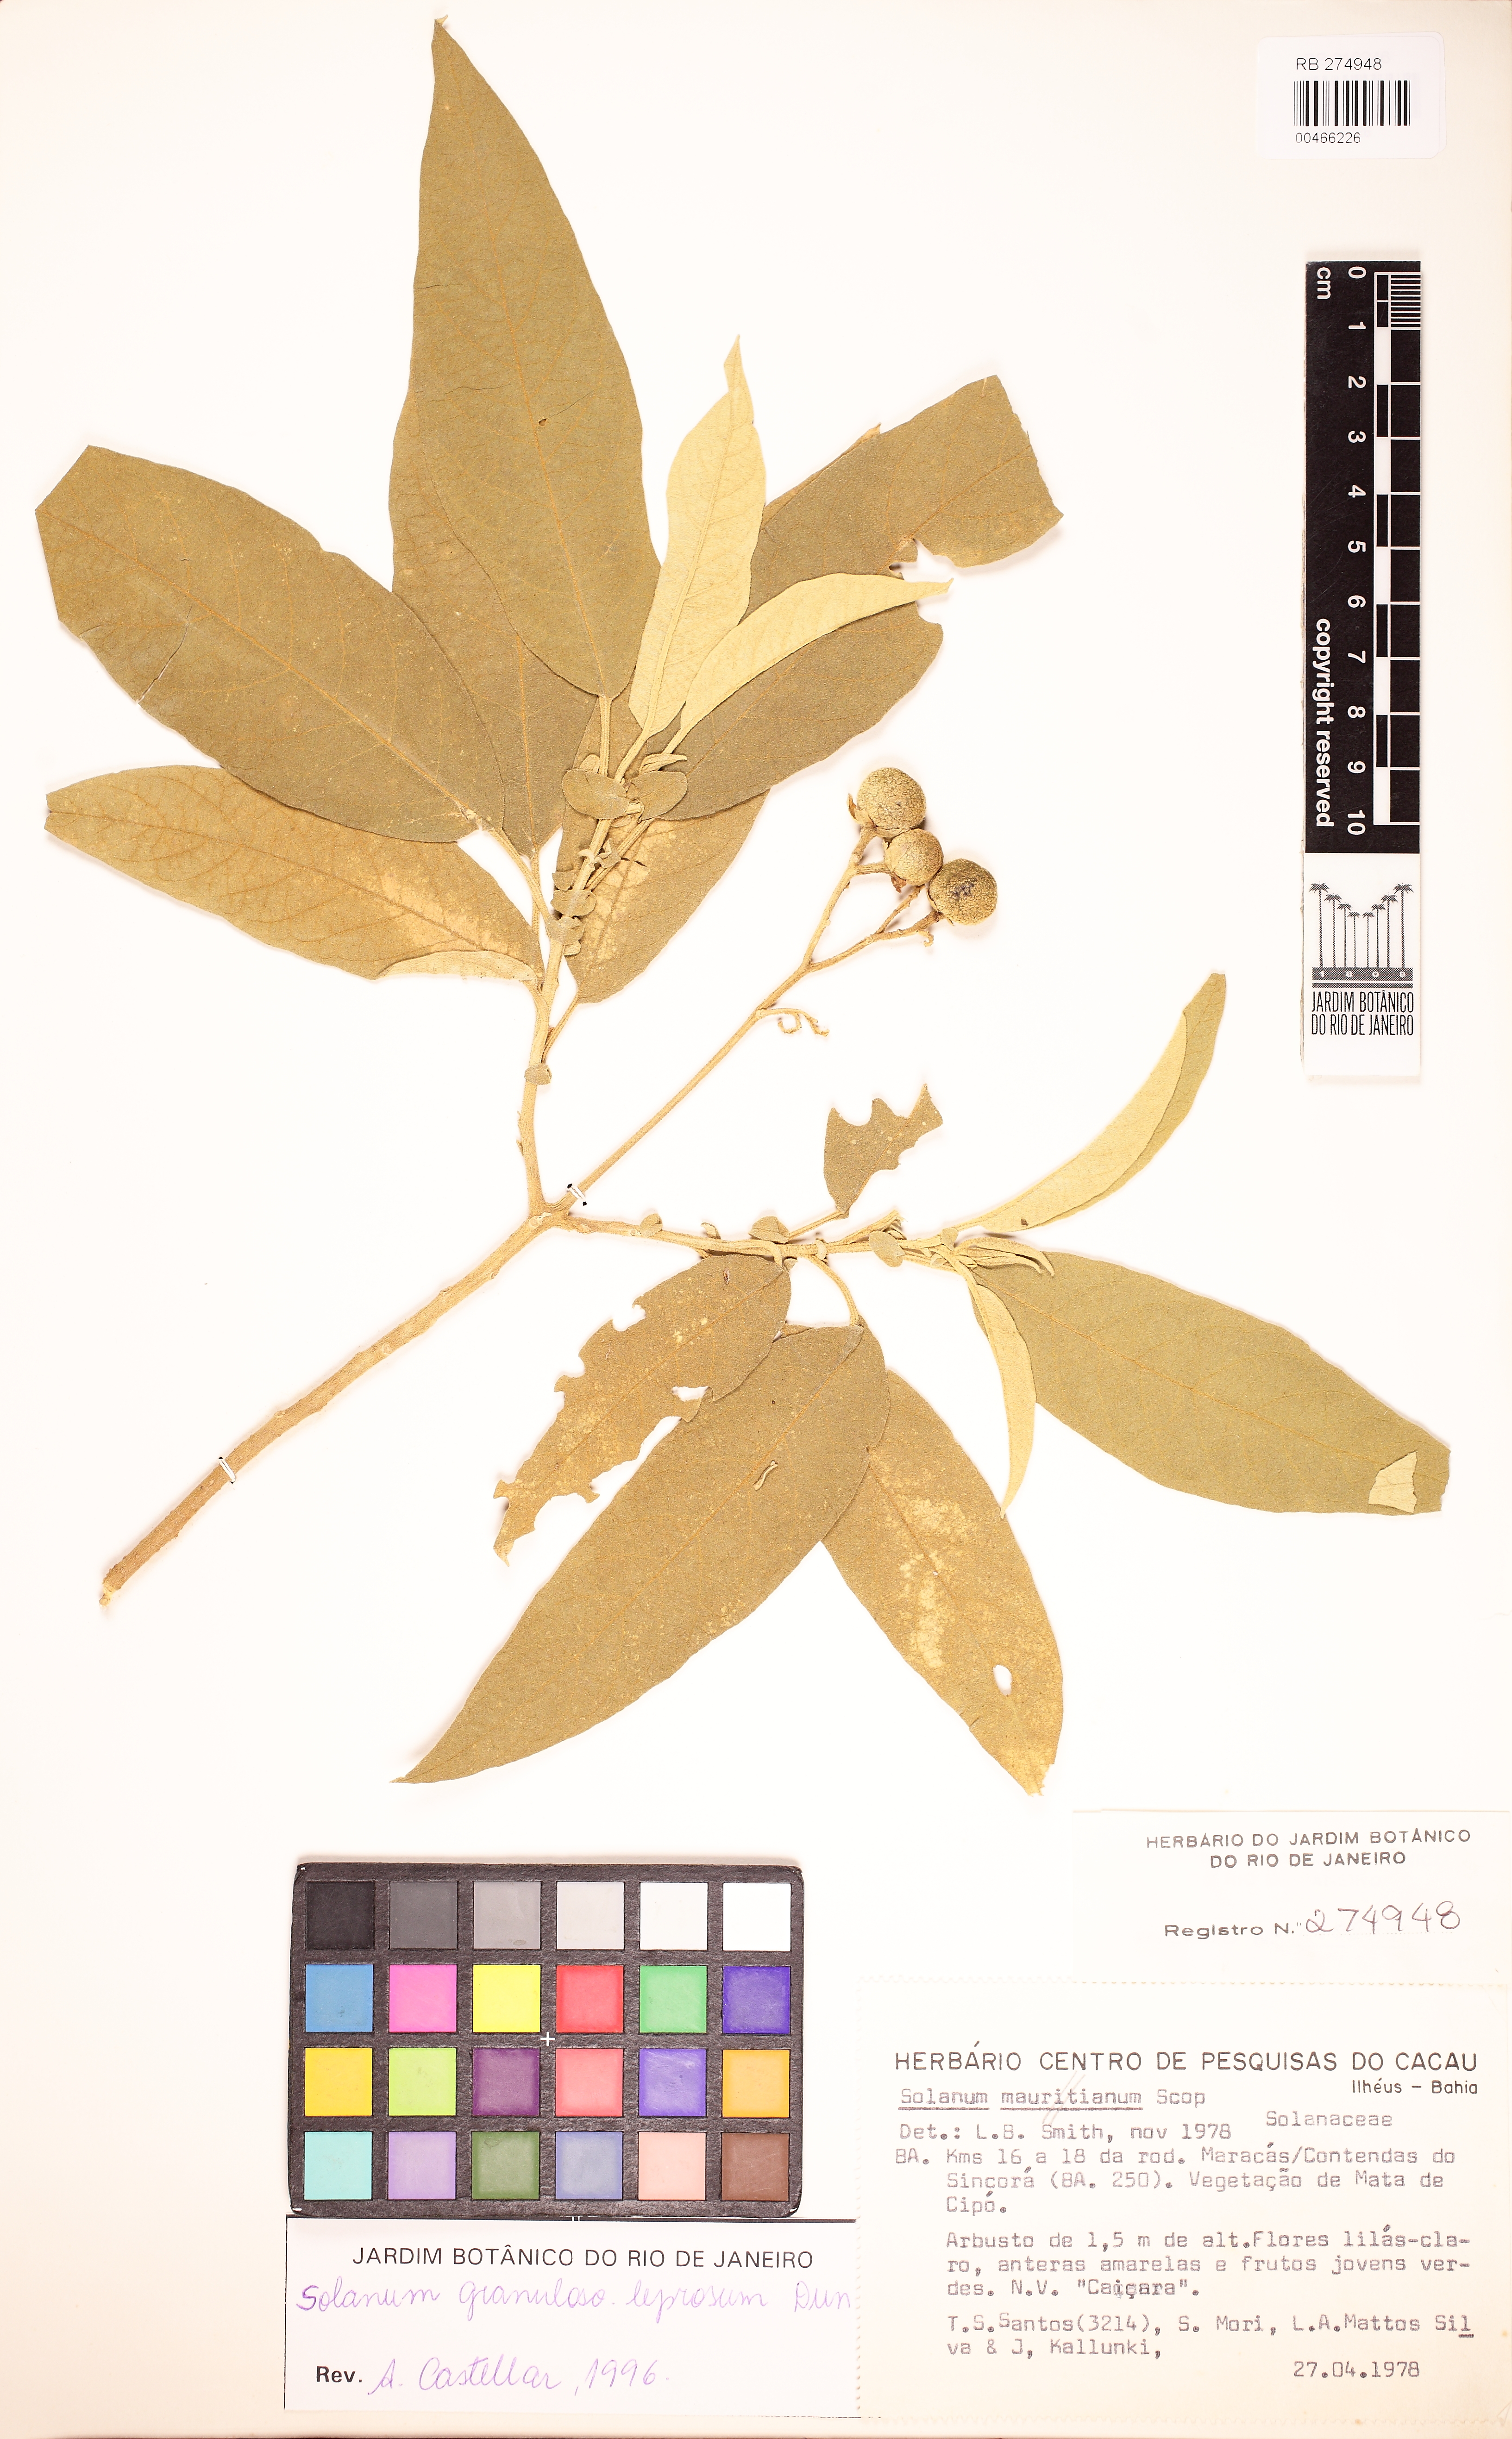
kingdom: Plantae
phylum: Tracheophyta
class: Magnoliopsida
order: Solanales
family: Solanaceae
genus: Solanum
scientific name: Solanum granulosoleprosum
